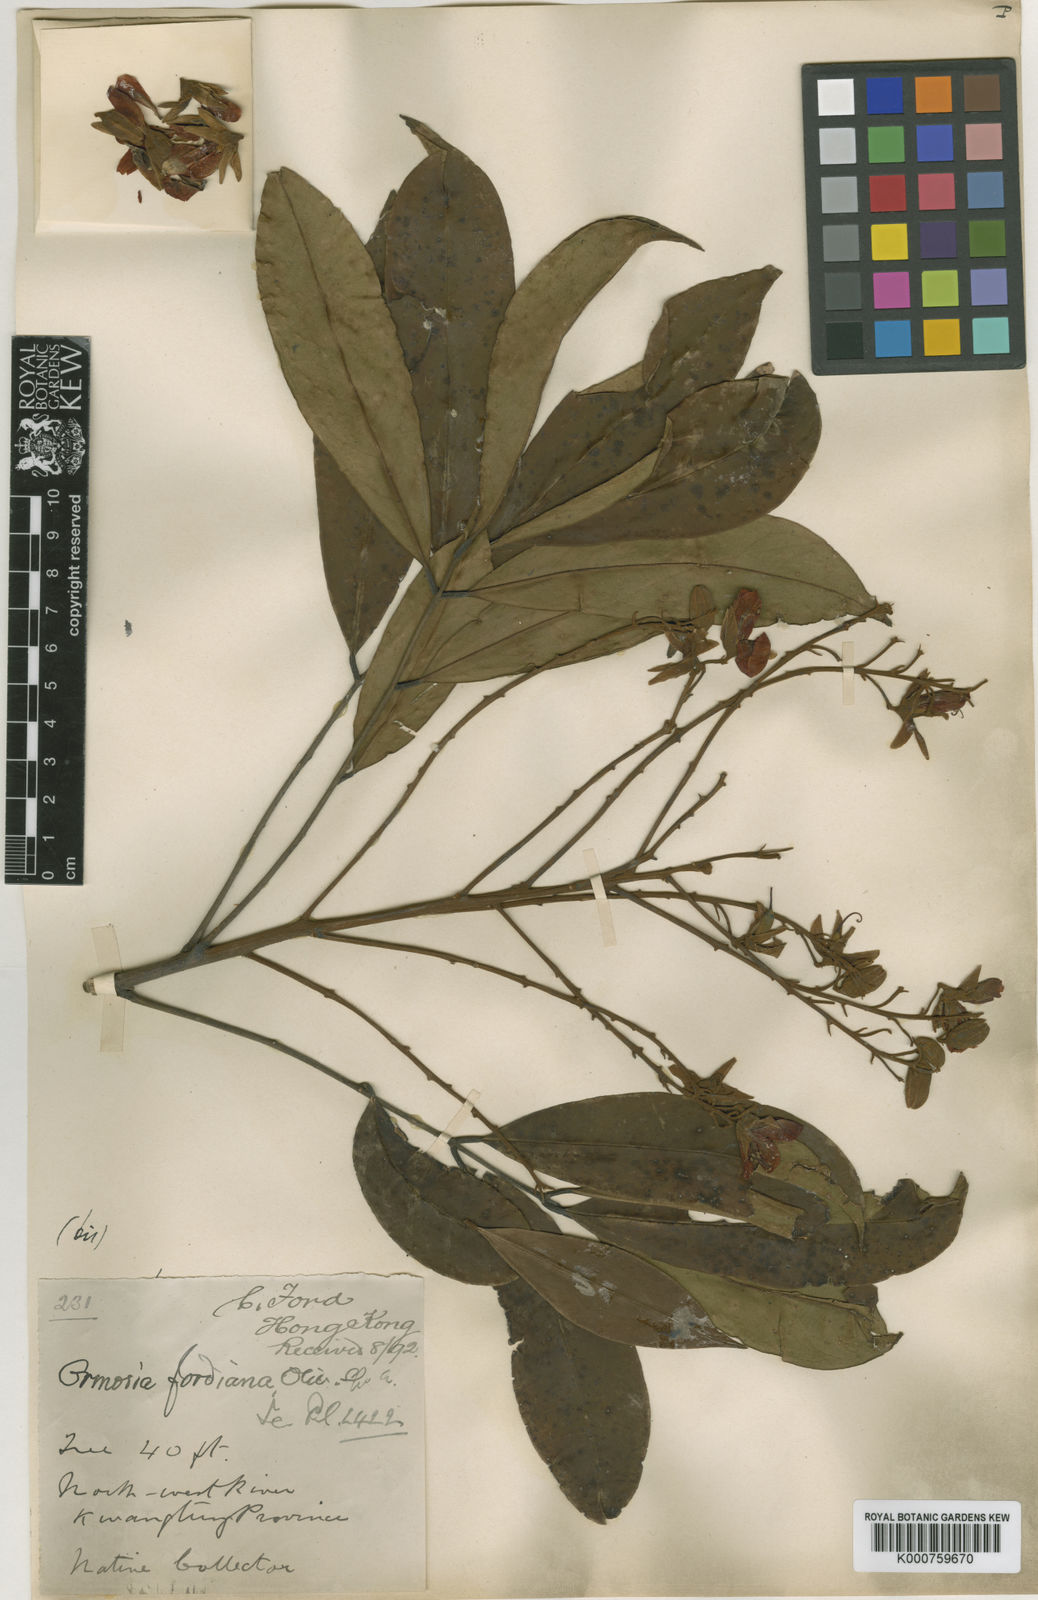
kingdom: Plantae
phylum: Tracheophyta
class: Magnoliopsida
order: Fabales
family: Fabaceae
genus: Ormosia
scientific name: Ormosia fordiana
